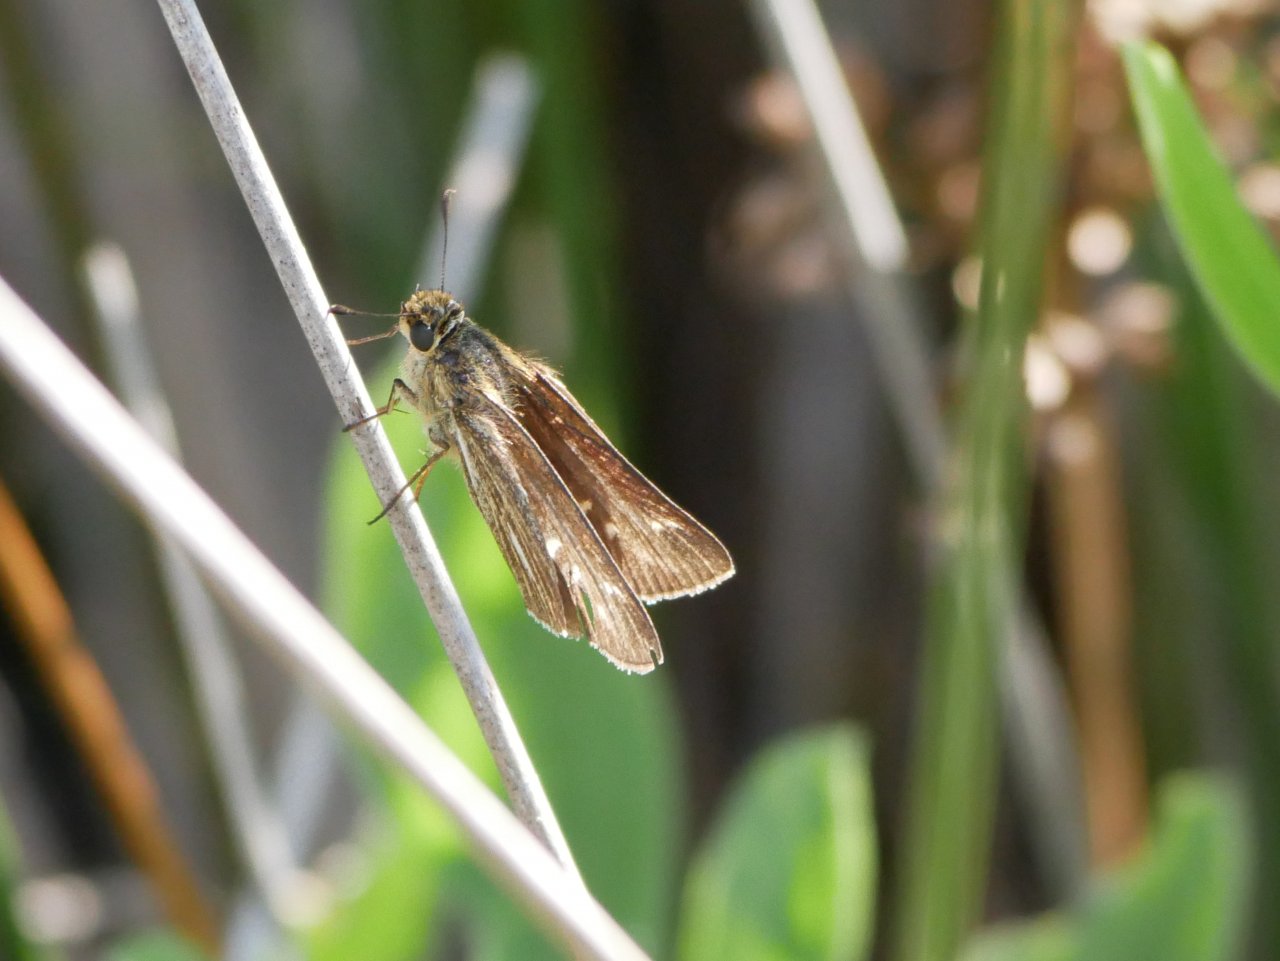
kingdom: Animalia
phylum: Arthropoda
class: Insecta
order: Lepidoptera
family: Hesperiidae
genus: Panoquina
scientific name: Panoquina panoquin
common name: Salt Marsh Skipper
